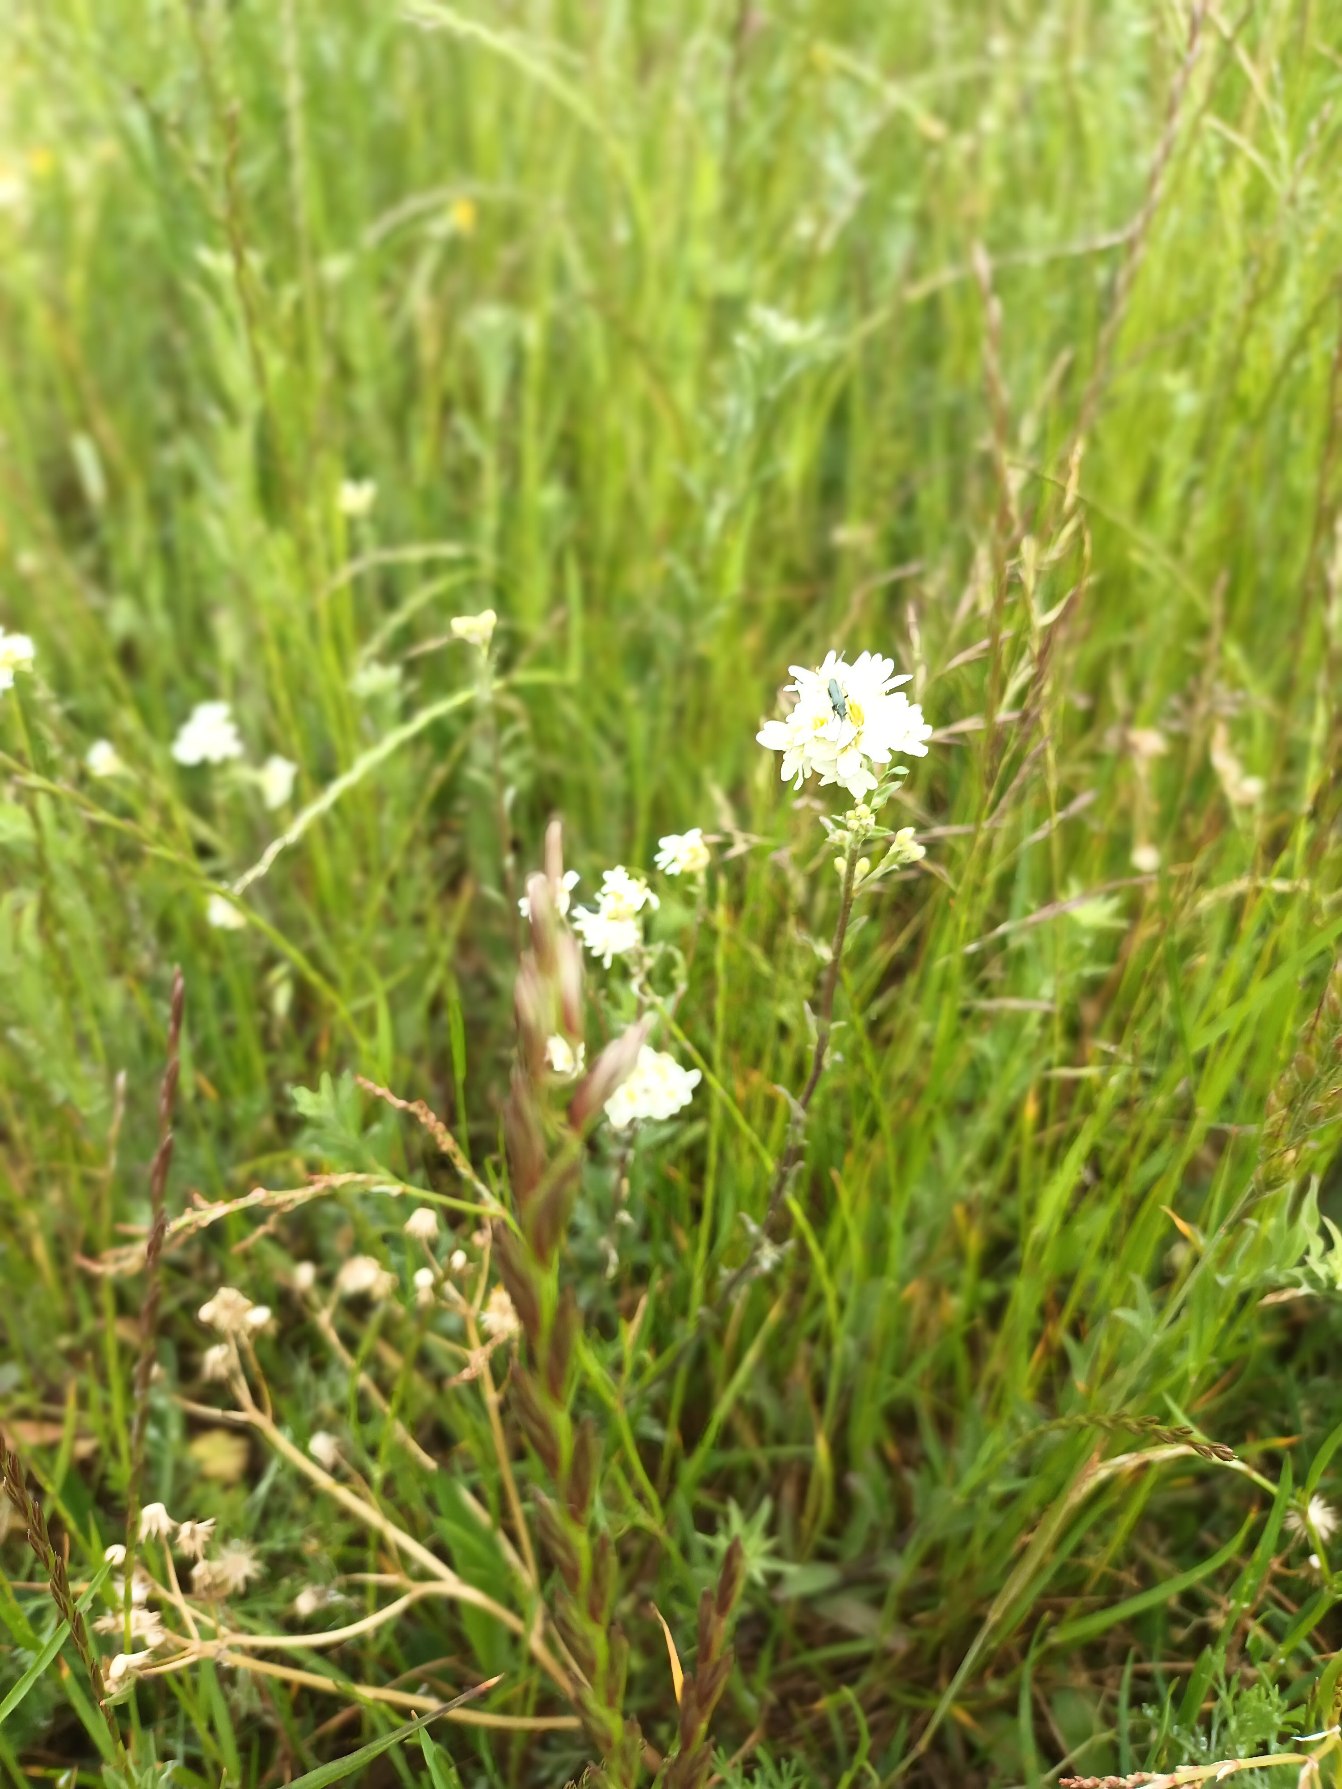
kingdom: Plantae
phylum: Tracheophyta
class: Magnoliopsida
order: Brassicales
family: Brassicaceae
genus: Berteroa
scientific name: Berteroa incana
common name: Kløvplade
